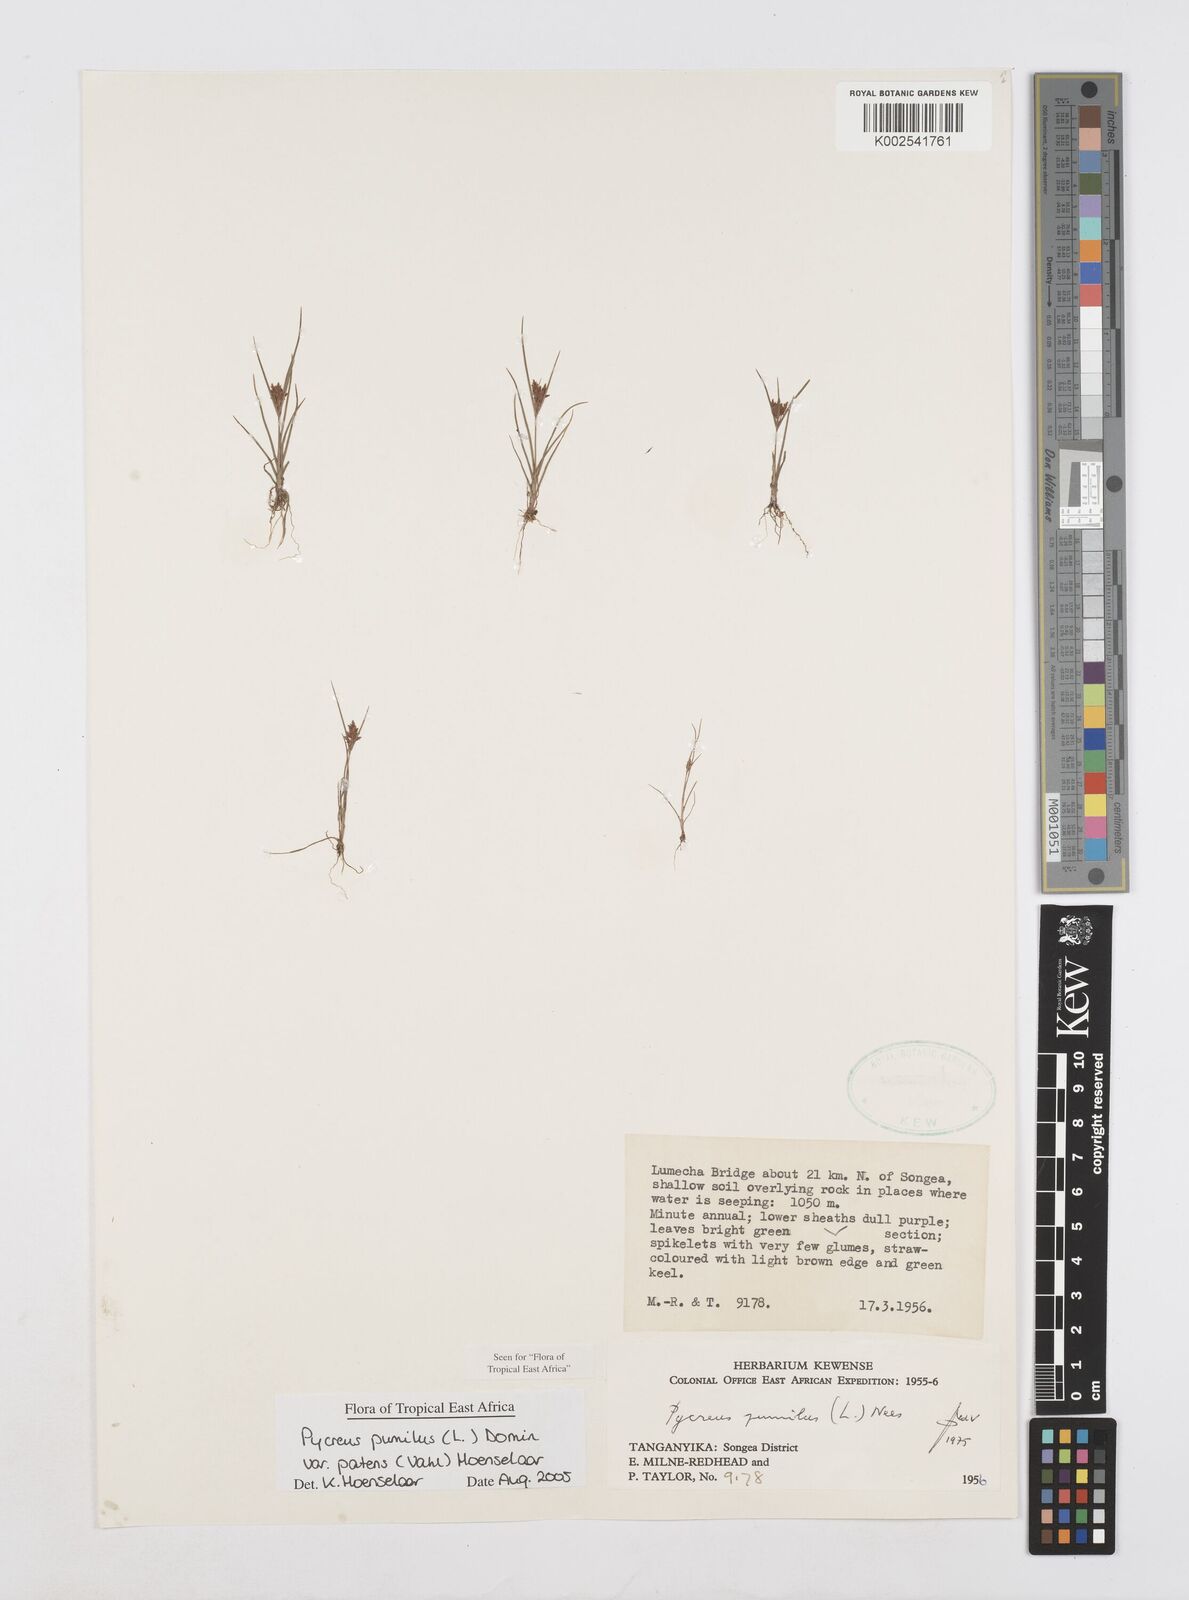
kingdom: Plantae
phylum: Tracheophyta
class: Liliopsida
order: Poales
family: Cyperaceae
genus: Cyperus
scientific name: Cyperus pumilus
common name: Low flatsedge
